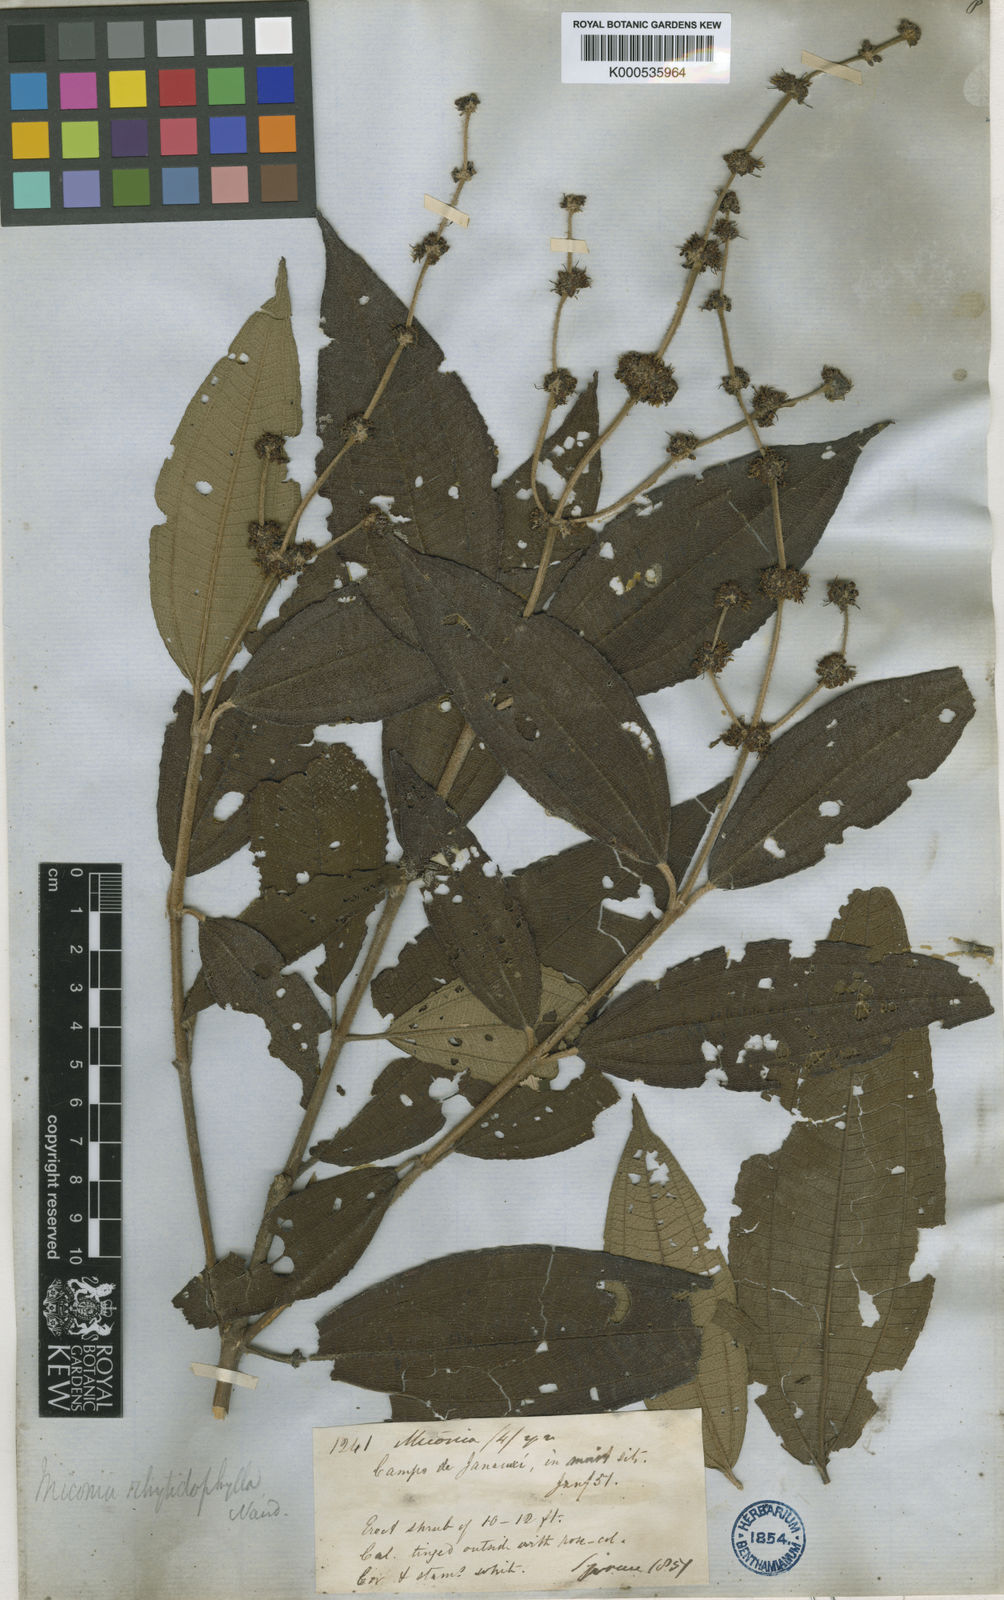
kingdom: Plantae
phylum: Tracheophyta
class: Magnoliopsida
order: Myrtales
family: Melastomataceae
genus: Miconia
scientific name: Miconia rhytidophylla
